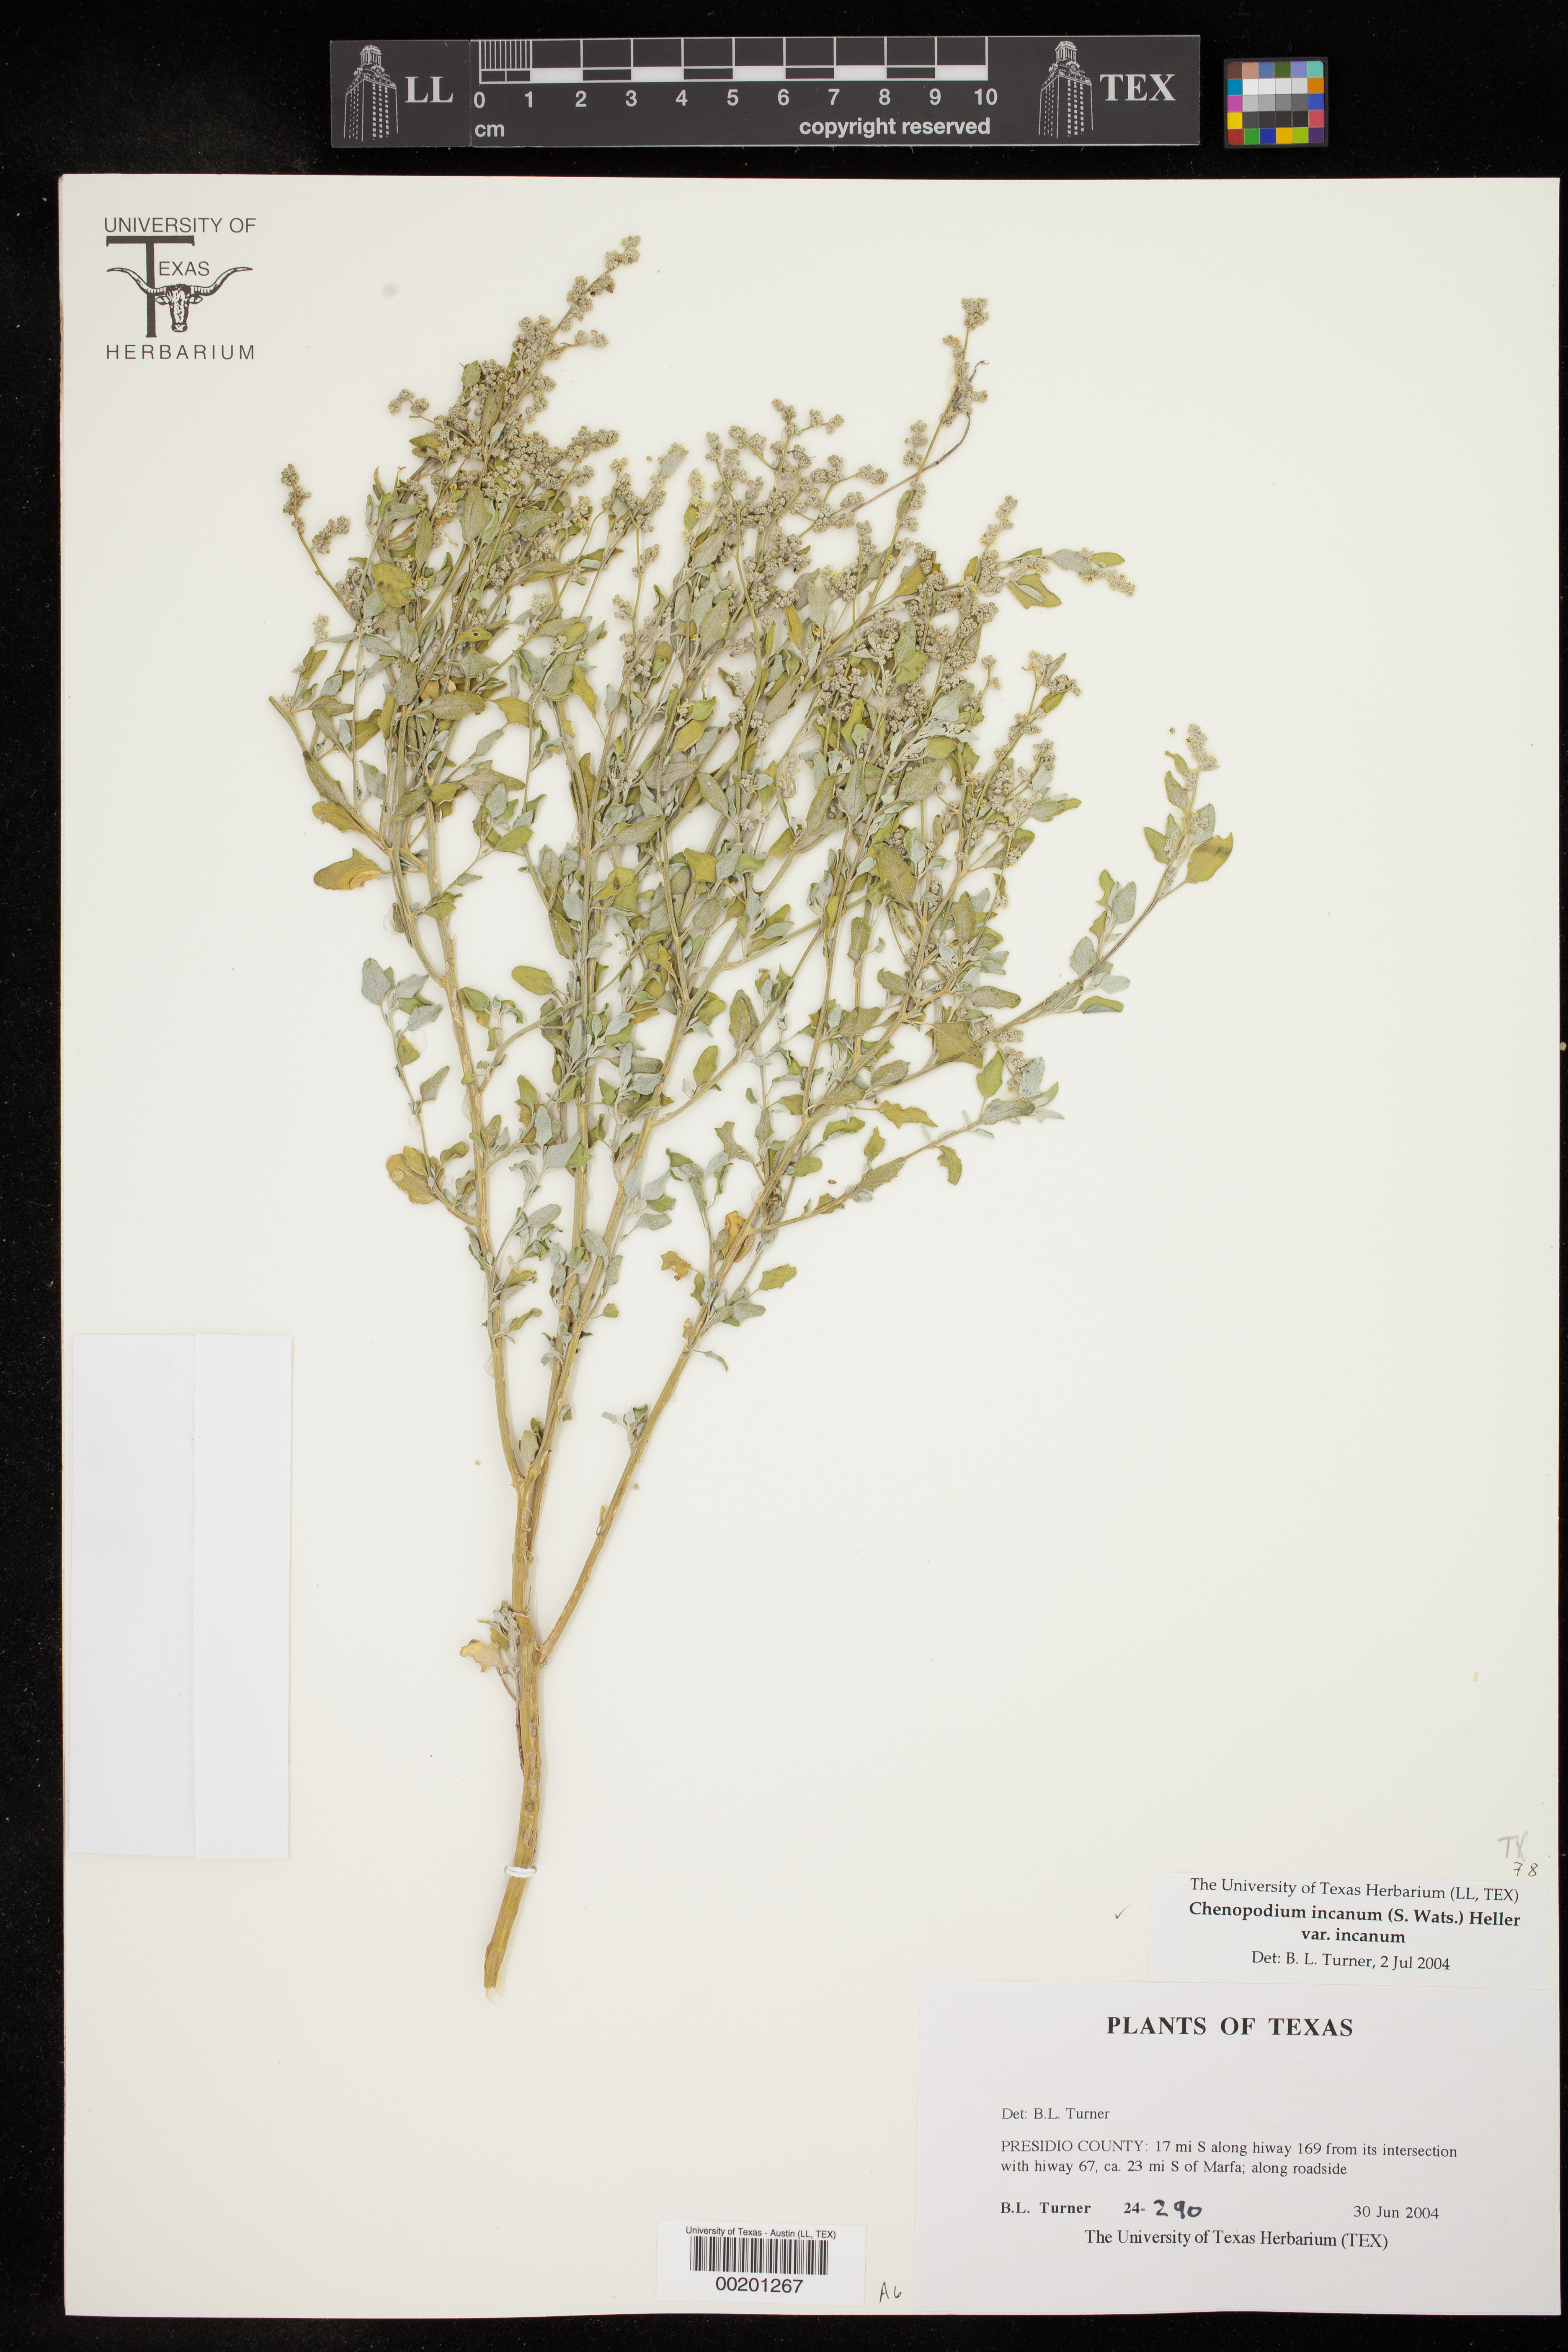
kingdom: Plantae
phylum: Tracheophyta
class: Magnoliopsida
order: Caryophyllales
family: Amaranthaceae
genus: Chenopodium
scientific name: Chenopodium incanum
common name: Hoary goosefoot
